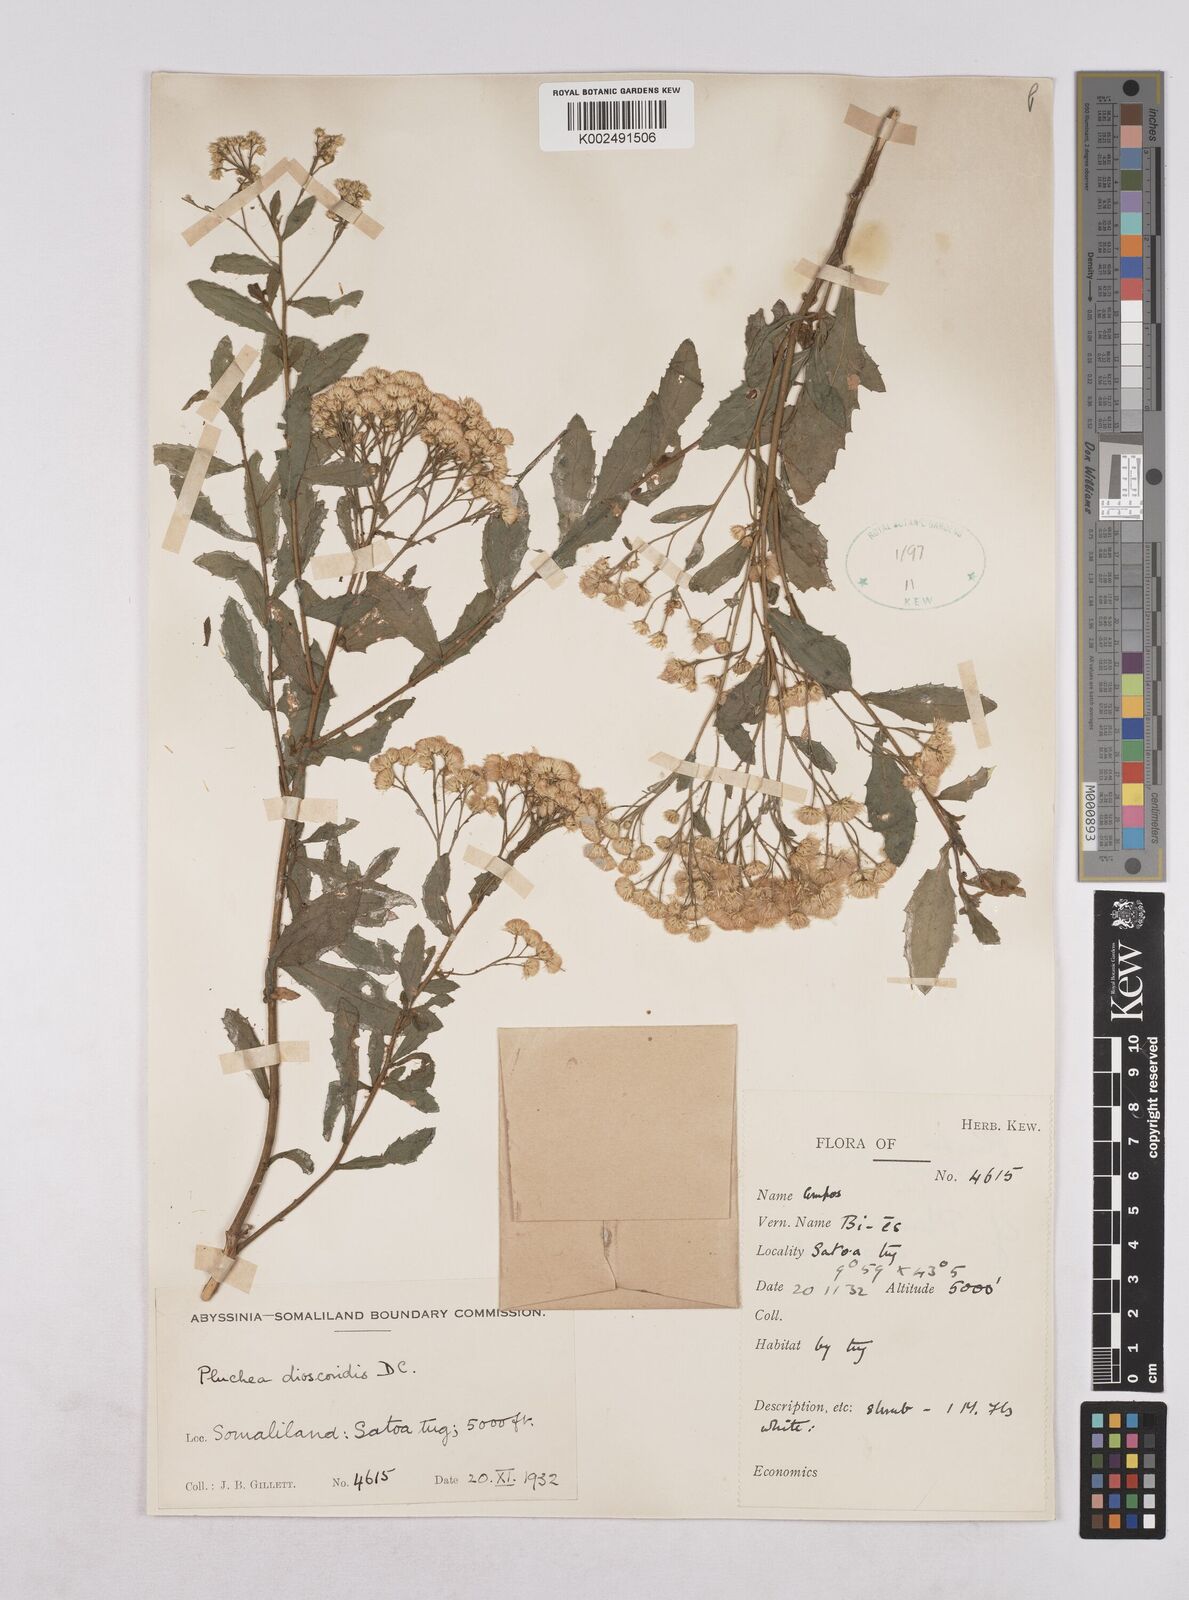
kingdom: Plantae
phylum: Tracheophyta
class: Magnoliopsida
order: Asterales
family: Asteraceae
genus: Pluchea
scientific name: Pluchea dioscoridis
